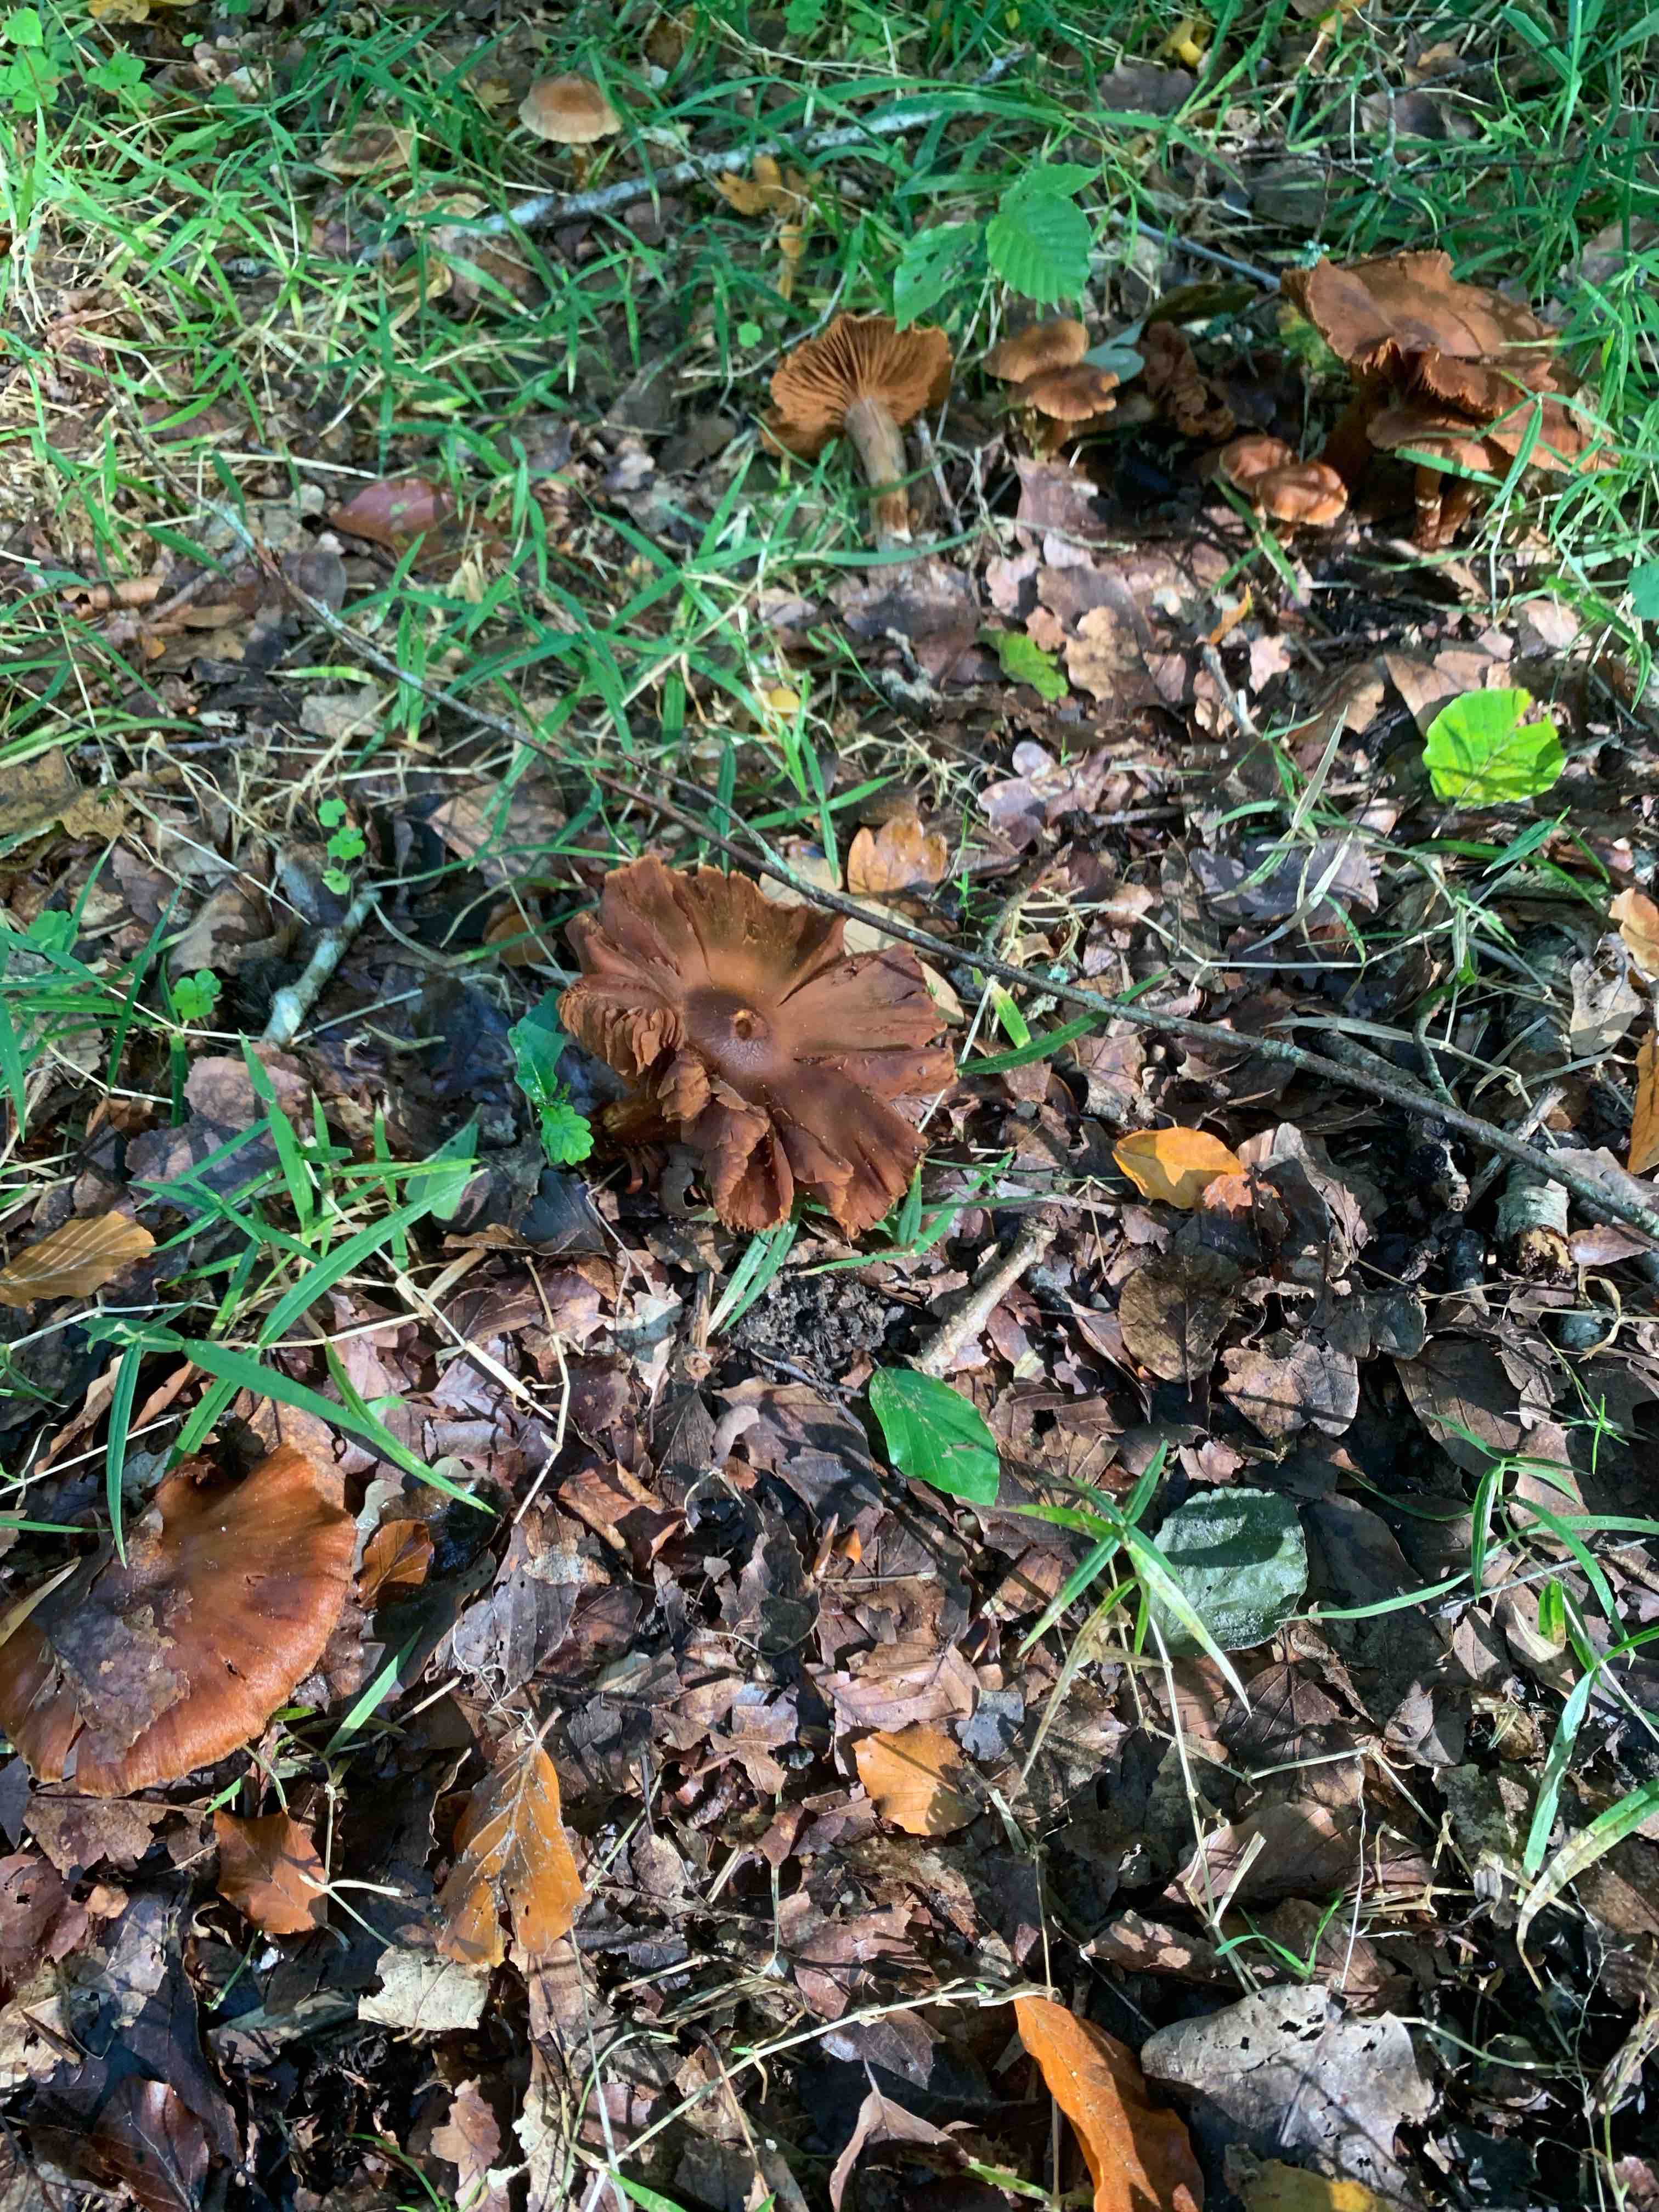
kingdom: Fungi
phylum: Basidiomycota
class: Agaricomycetes
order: Agaricales
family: Cortinariaceae
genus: Cortinarius
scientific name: Cortinarius
